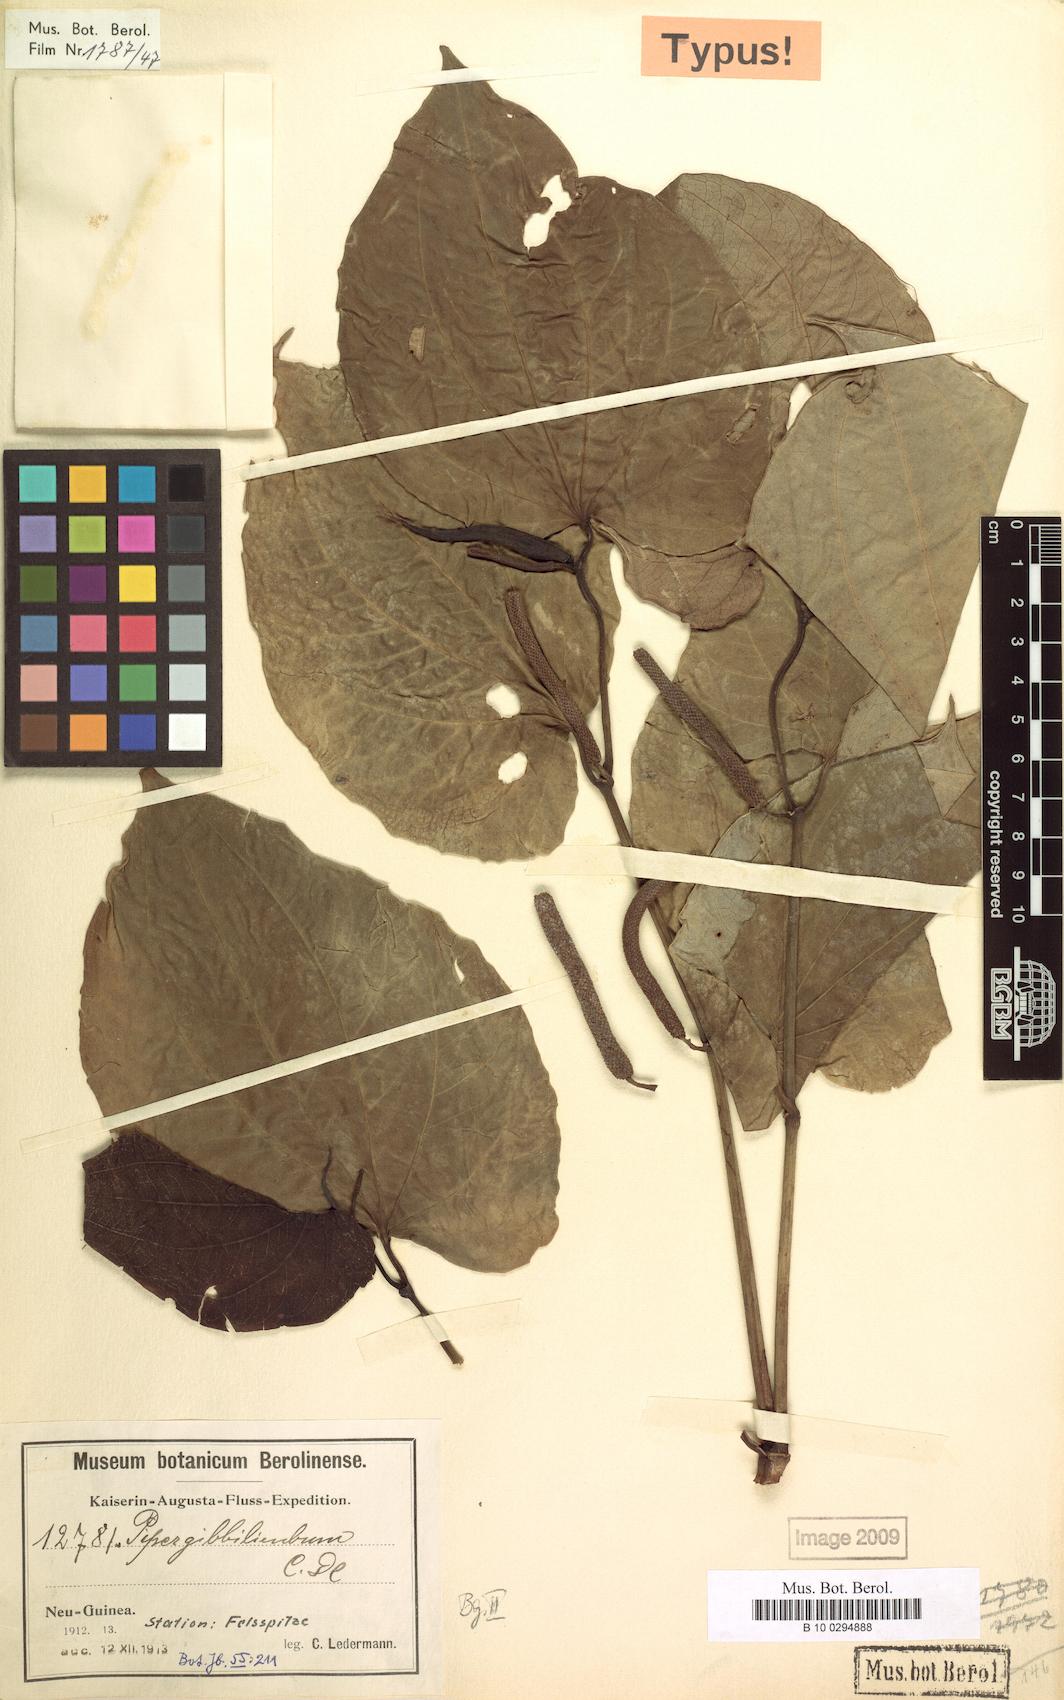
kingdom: Plantae
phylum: Tracheophyta
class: Magnoliopsida
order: Piperales
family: Piperaceae
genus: Piper
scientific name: Piper gibbilimbum
